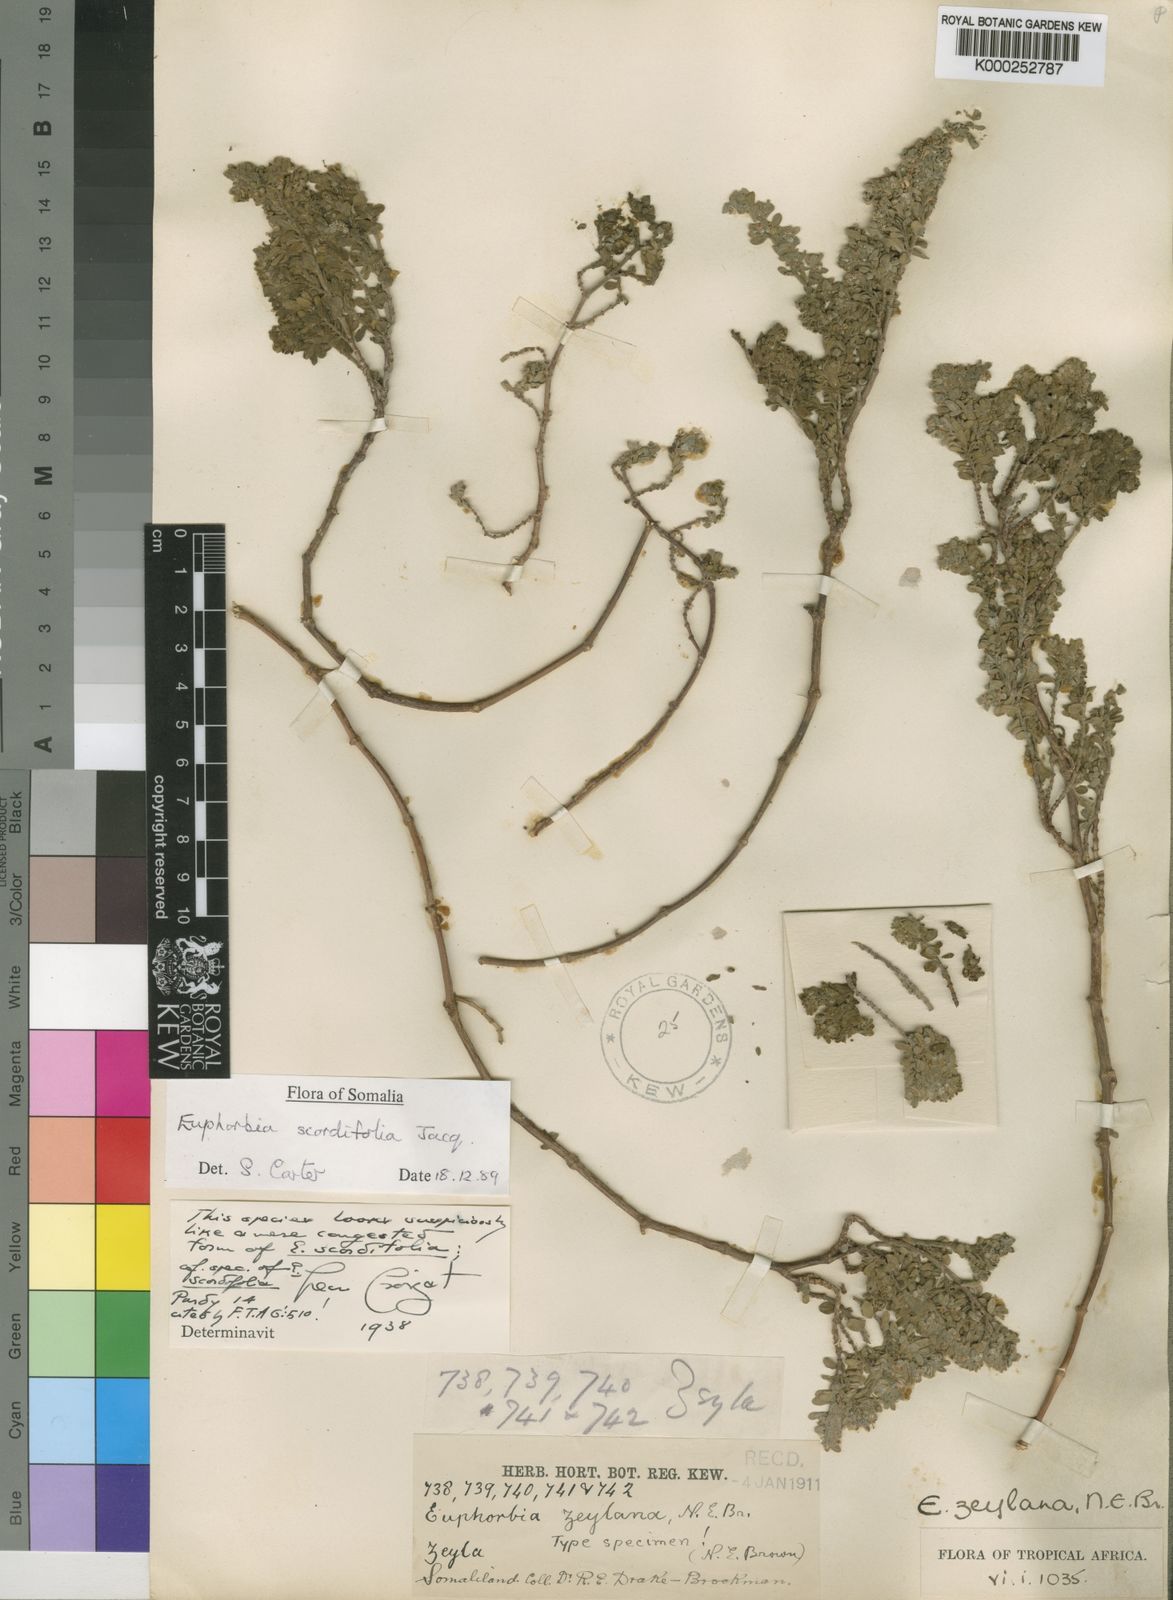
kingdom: Plantae
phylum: Tracheophyta
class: Magnoliopsida
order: Malpighiales
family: Euphorbiaceae
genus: Euphorbia
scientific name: Euphorbia zeylana
